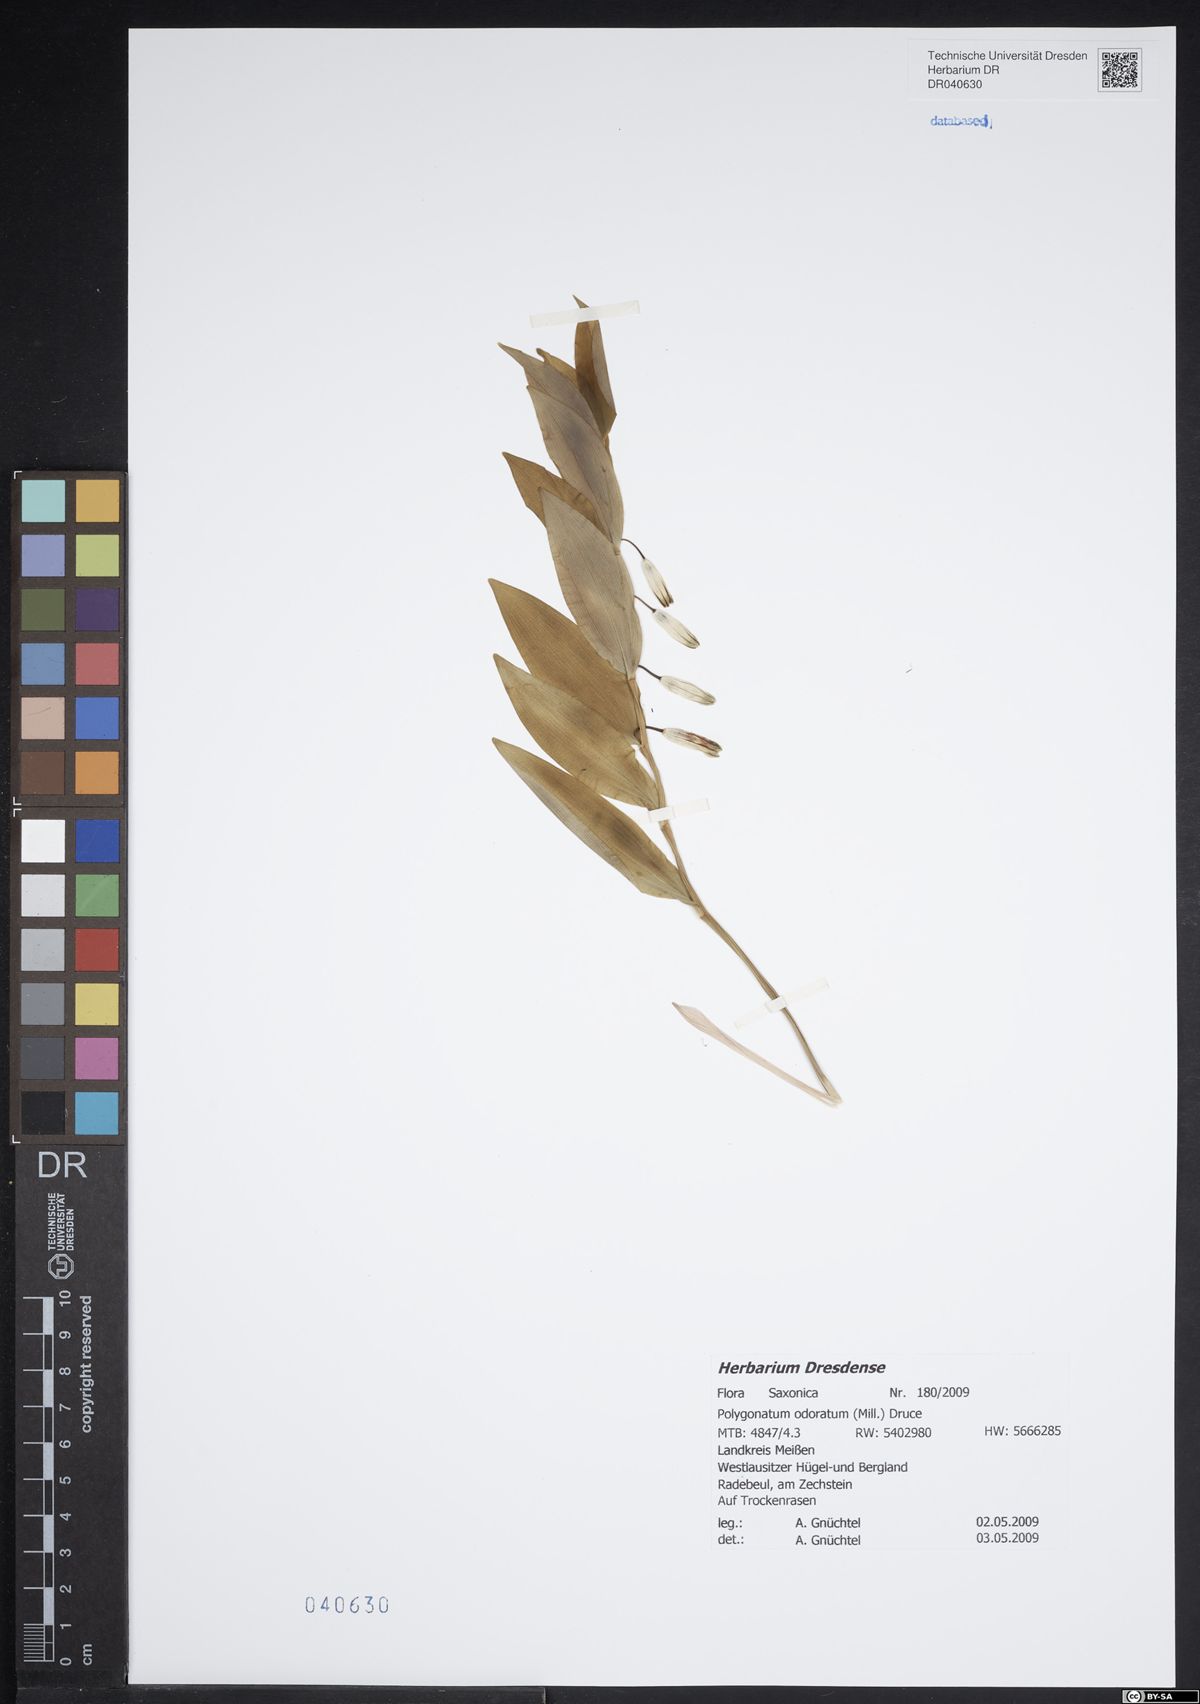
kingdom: Plantae
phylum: Tracheophyta
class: Liliopsida
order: Asparagales
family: Asparagaceae
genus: Polygonatum
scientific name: Polygonatum odoratum
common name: Angular solomon's-seal
